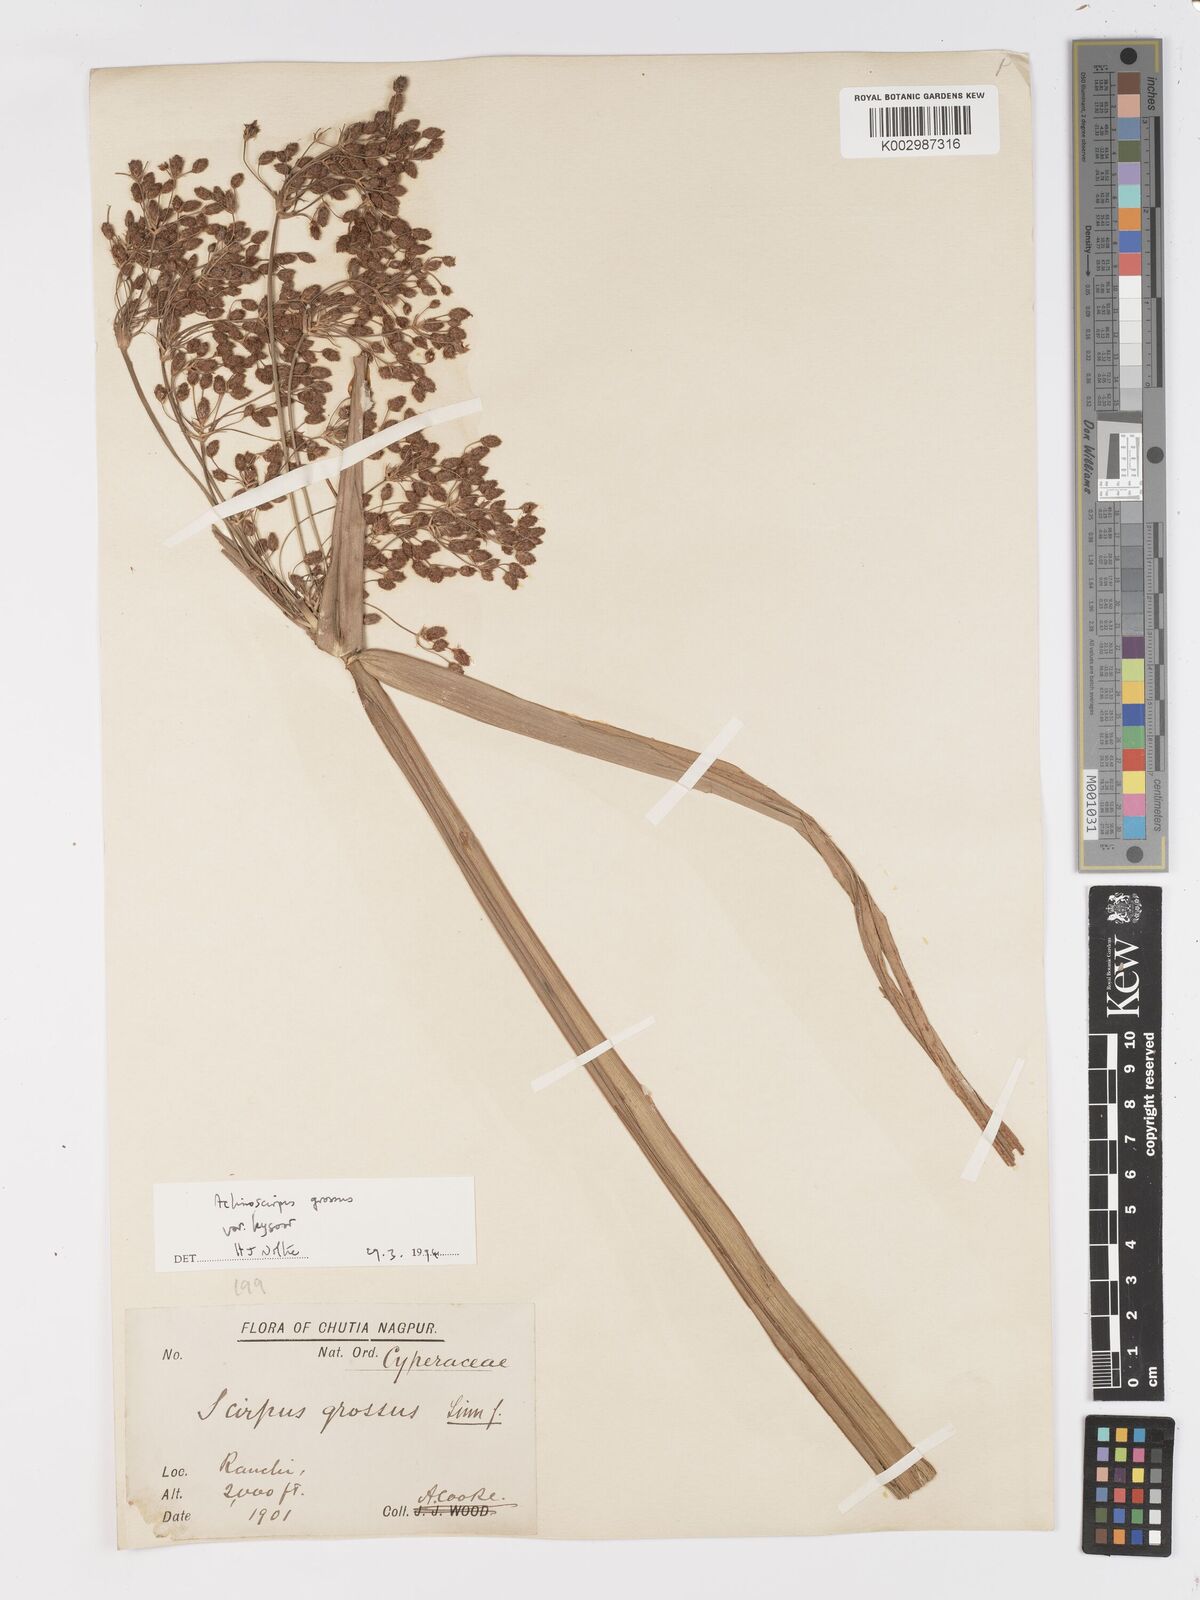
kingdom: Plantae
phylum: Tracheophyta
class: Liliopsida
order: Poales
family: Cyperaceae
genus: Actinoscirpus
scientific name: Actinoscirpus grossus
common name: Giant bur rush
